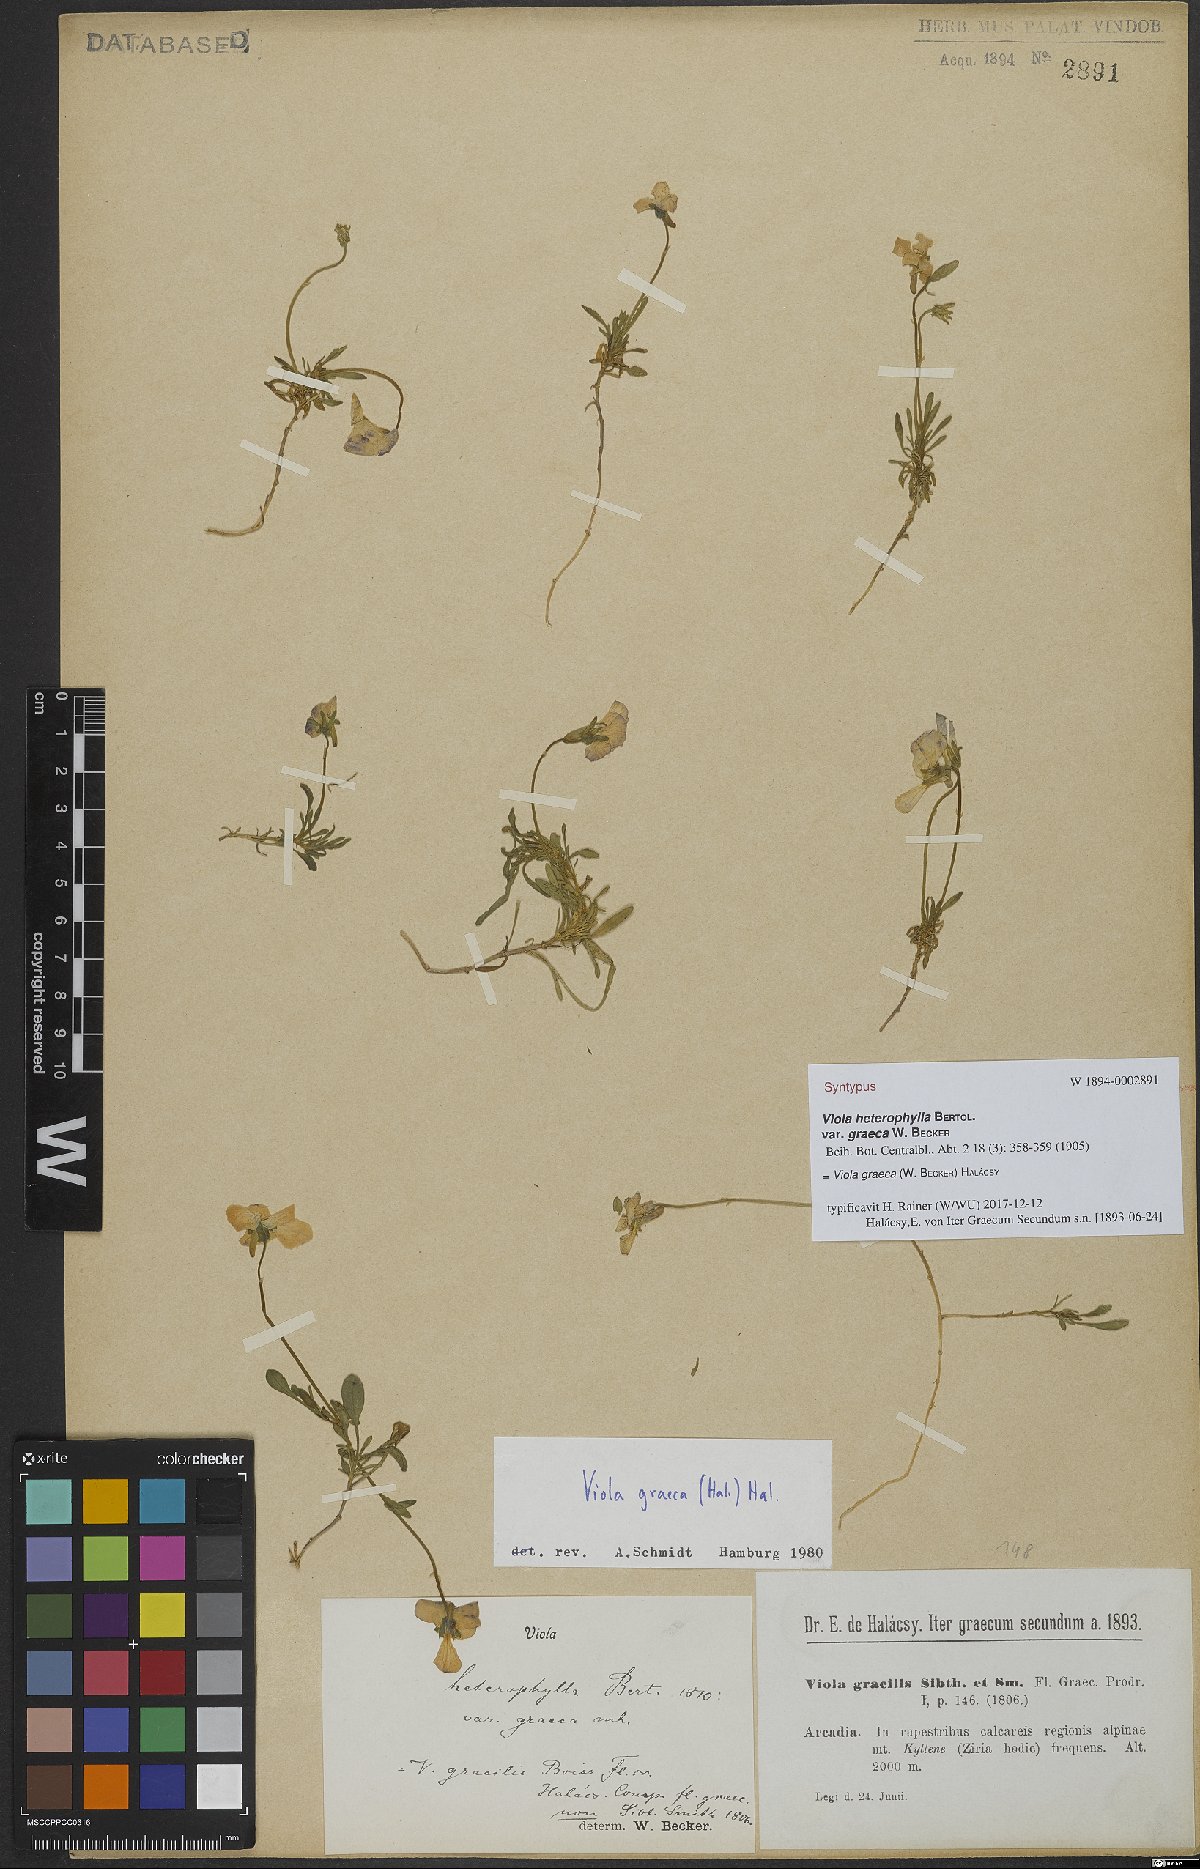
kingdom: Plantae
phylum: Tracheophyta
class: Magnoliopsida
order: Malpighiales
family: Violaceae
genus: Viola
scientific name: Viola graeca
